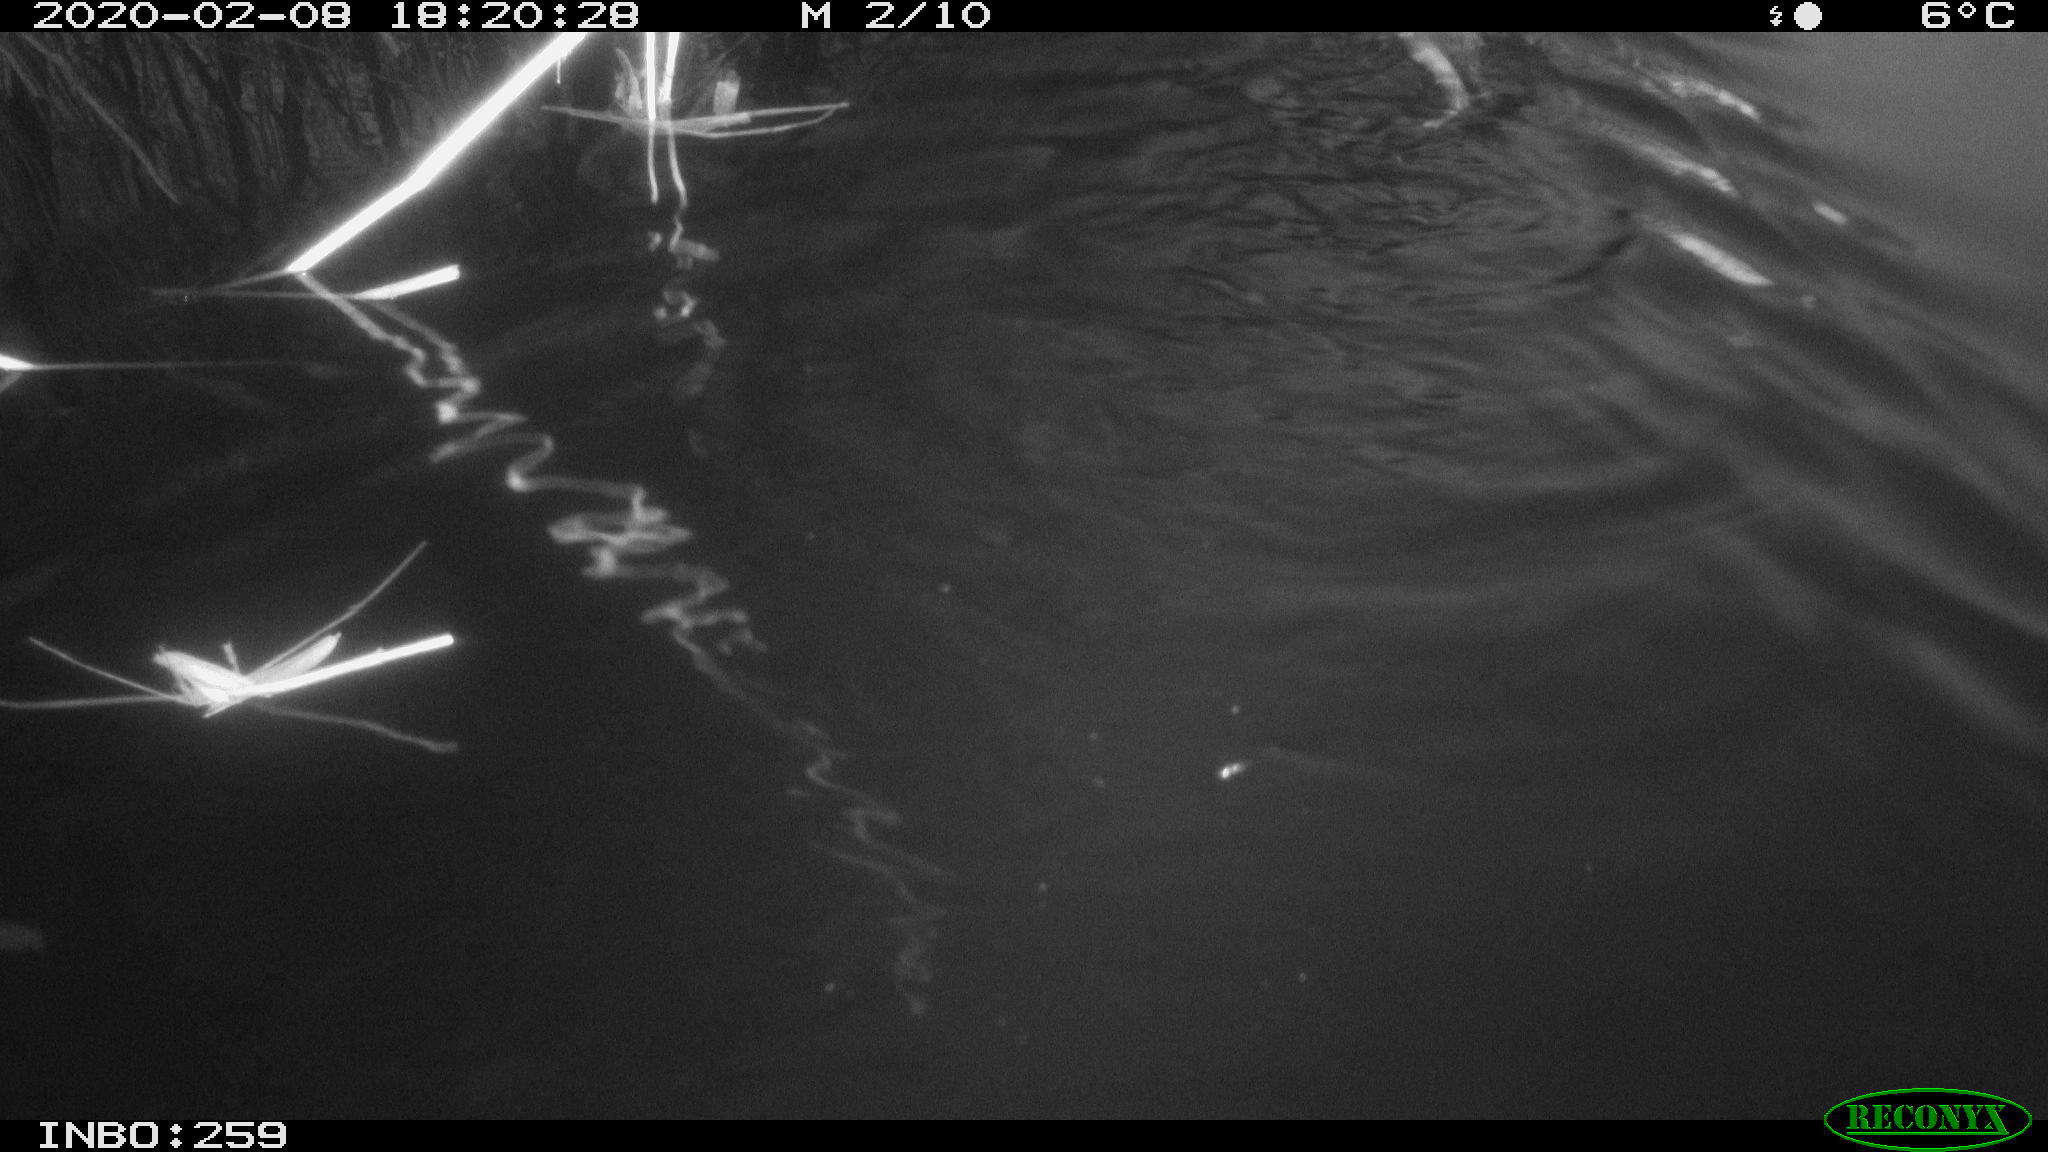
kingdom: Animalia
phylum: Chordata
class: Mammalia
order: Rodentia
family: Cricetidae
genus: Ondatra
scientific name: Ondatra zibethicus
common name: Muskrat
